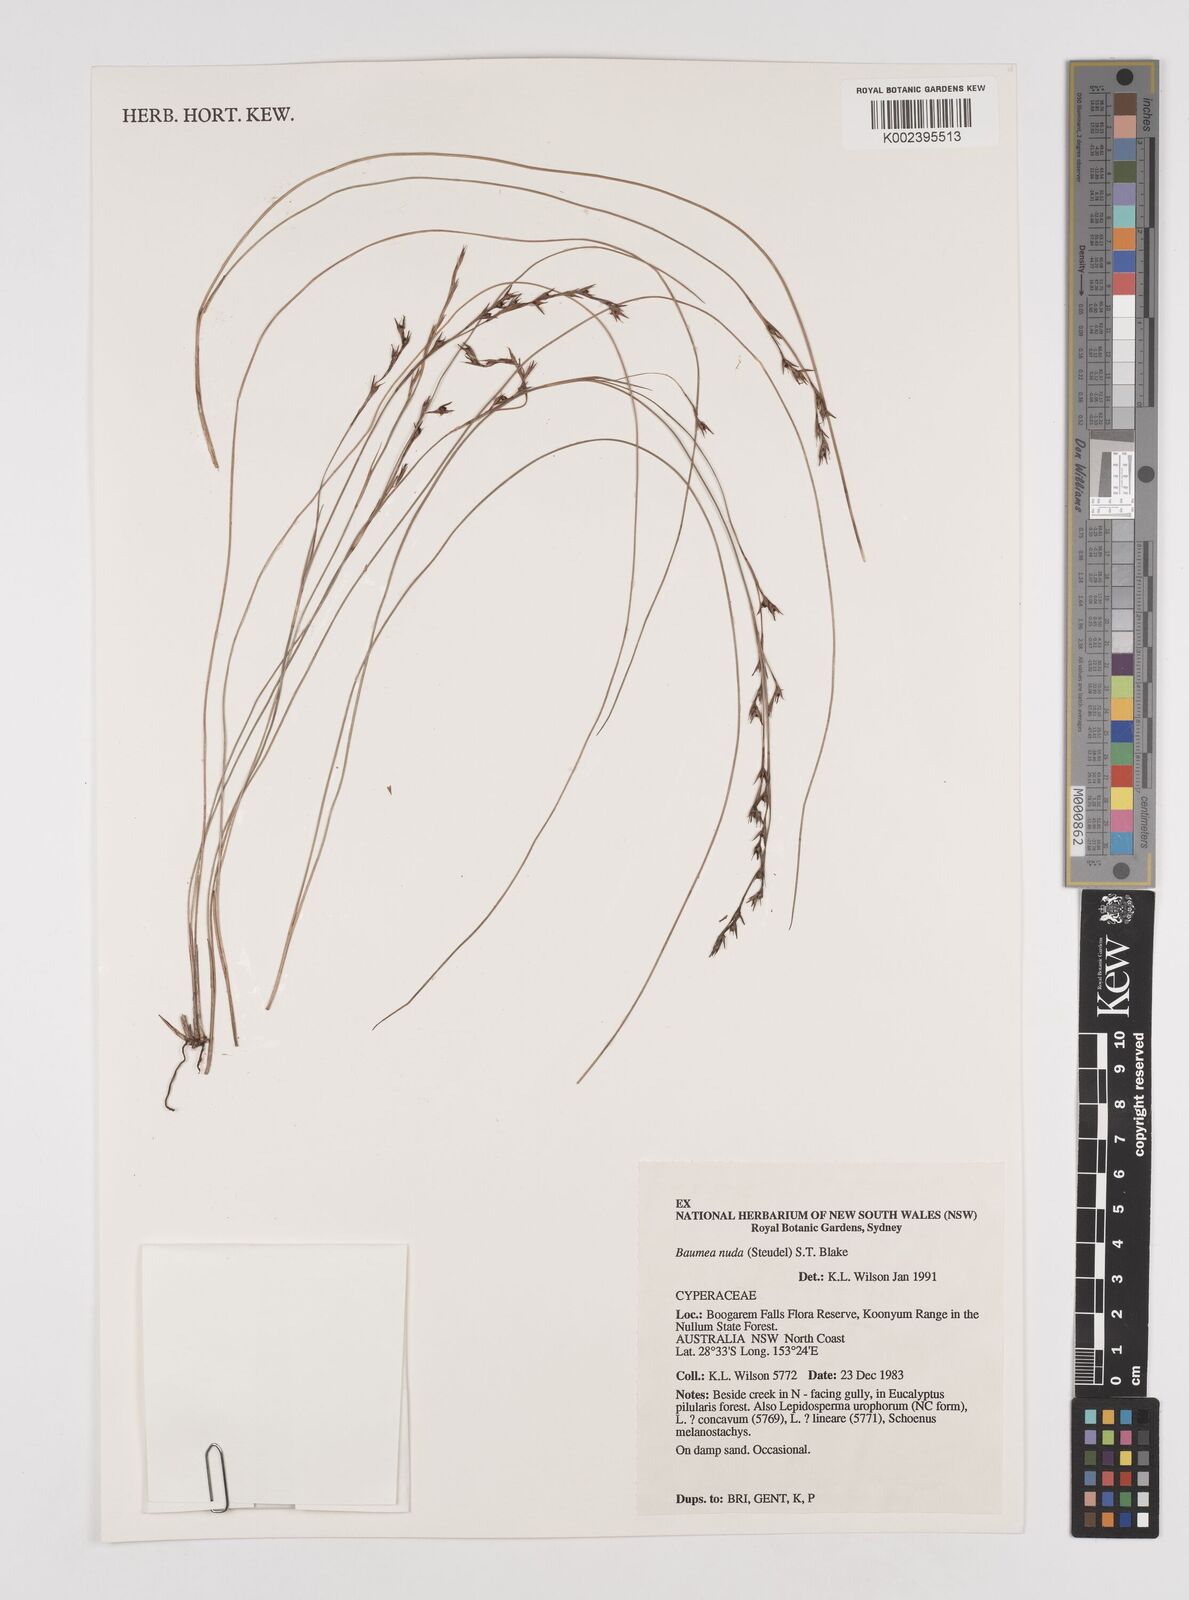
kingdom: Plantae
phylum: Tracheophyta
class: Liliopsida
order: Poales
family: Cyperaceae
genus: Machaerina
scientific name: Machaerina nuda
